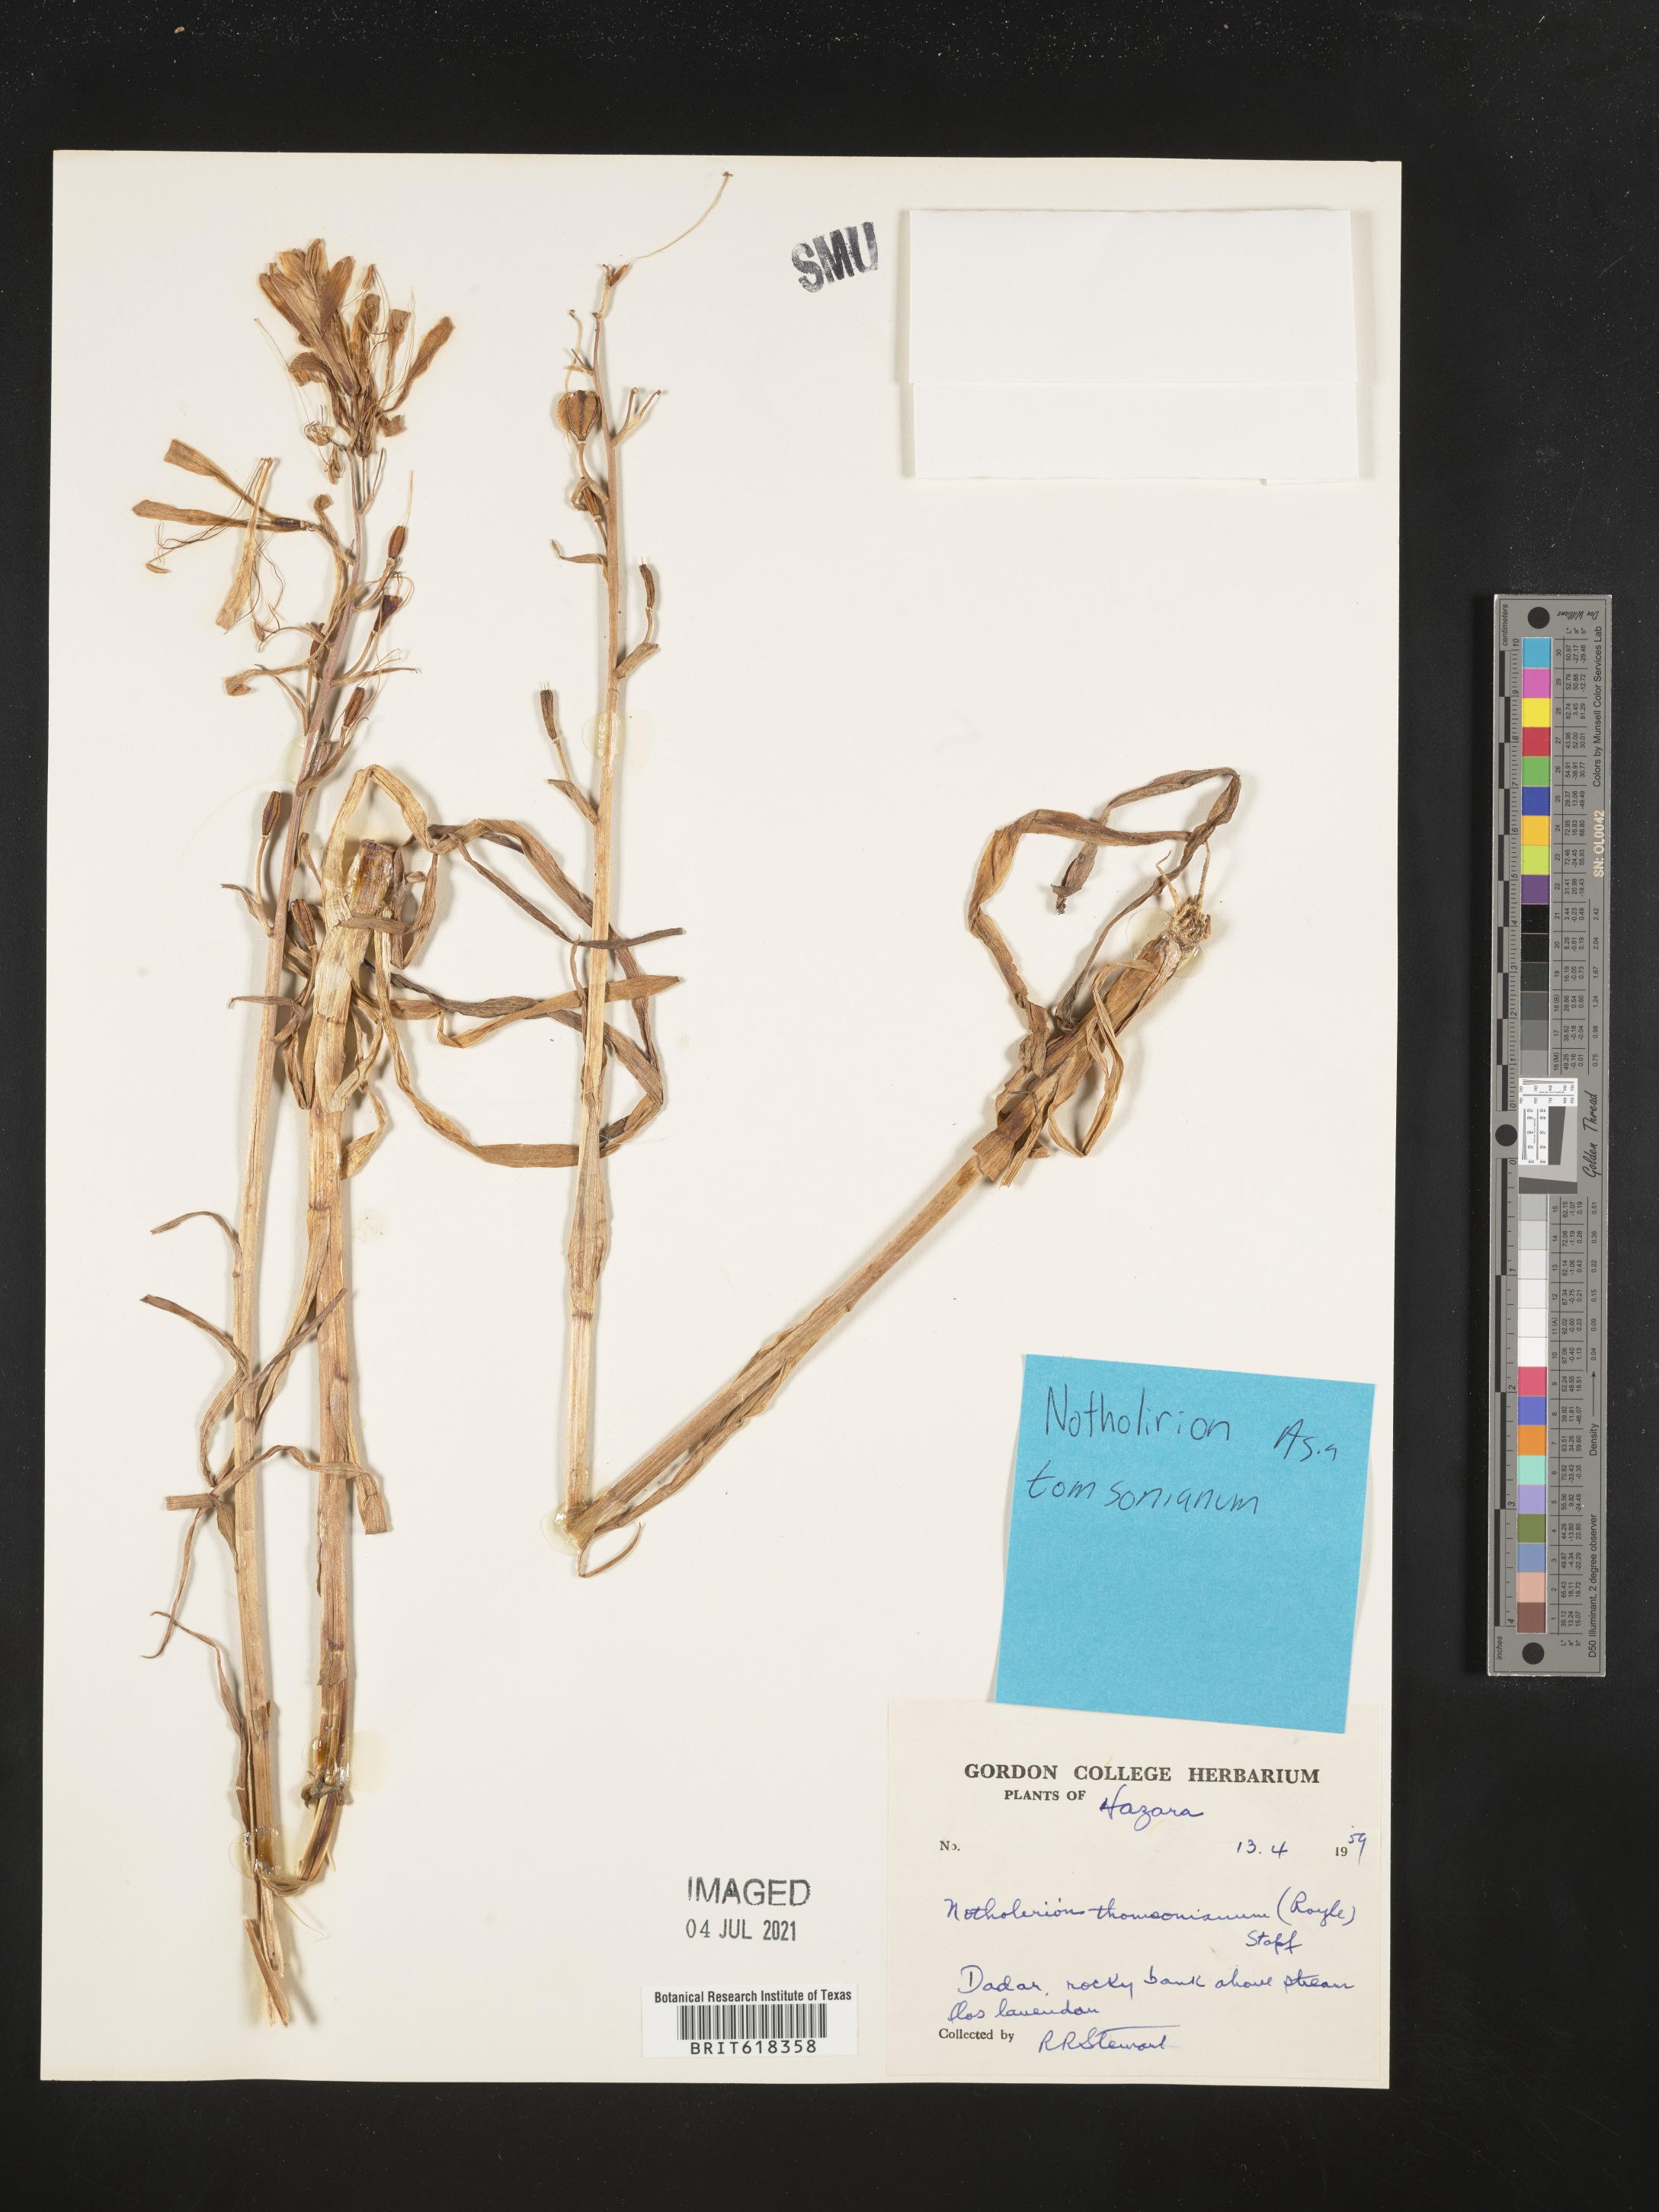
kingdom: Plantae
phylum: Tracheophyta
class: Liliopsida
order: Liliales
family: Liliaceae
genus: Notholirion
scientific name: Notholirion thomsonianum
